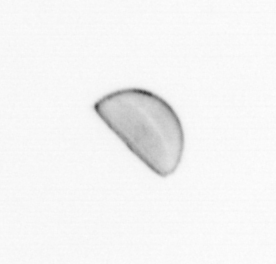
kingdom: Chromista
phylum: Ochrophyta
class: Bacillariophyceae
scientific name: Bacillariophyceae
